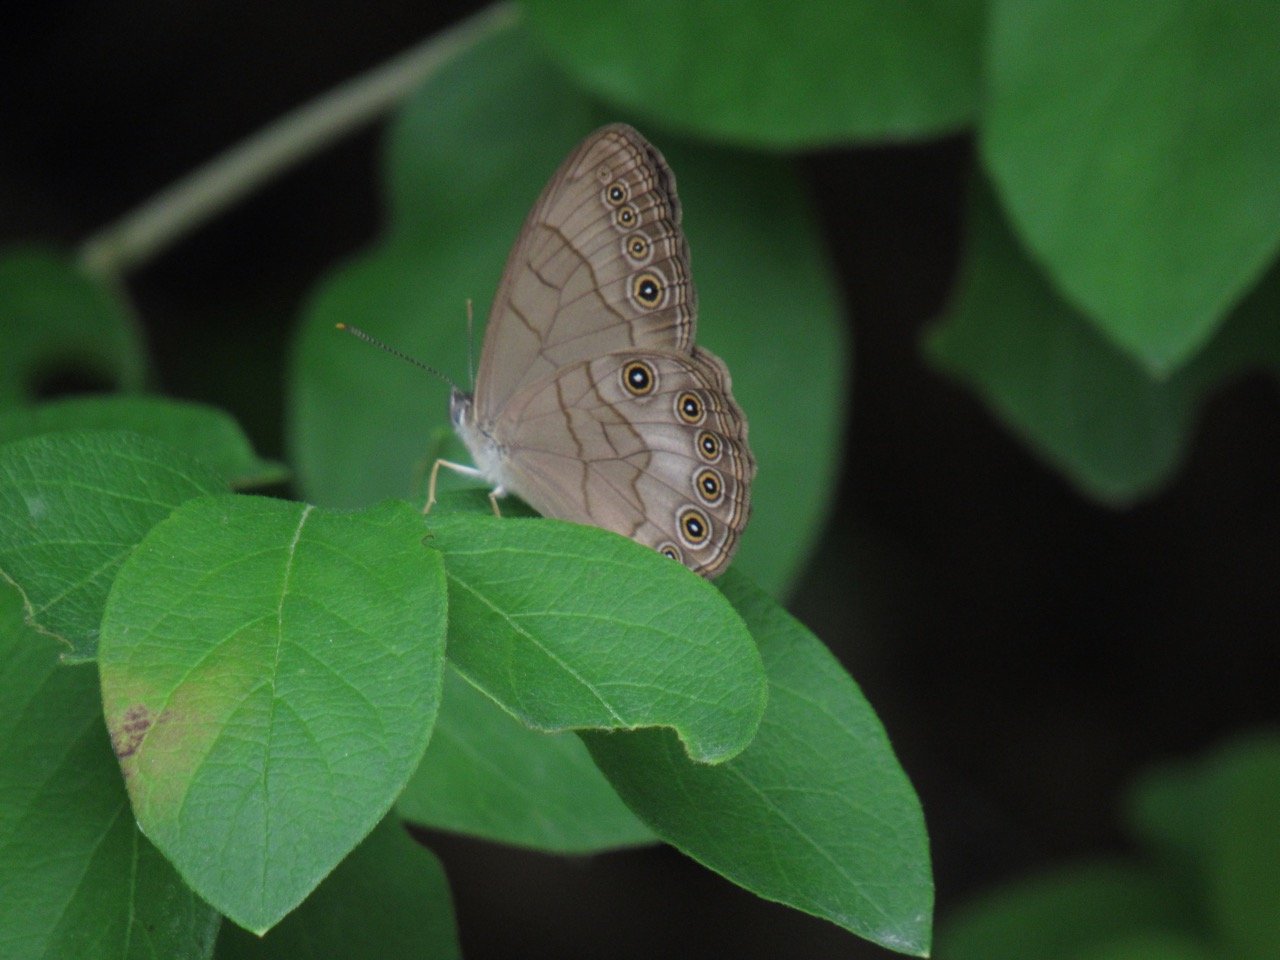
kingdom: Animalia
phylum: Arthropoda
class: Insecta
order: Lepidoptera
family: Nymphalidae
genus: Lethe
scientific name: Lethe eurydice
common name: Appalachian Eyed Brown
